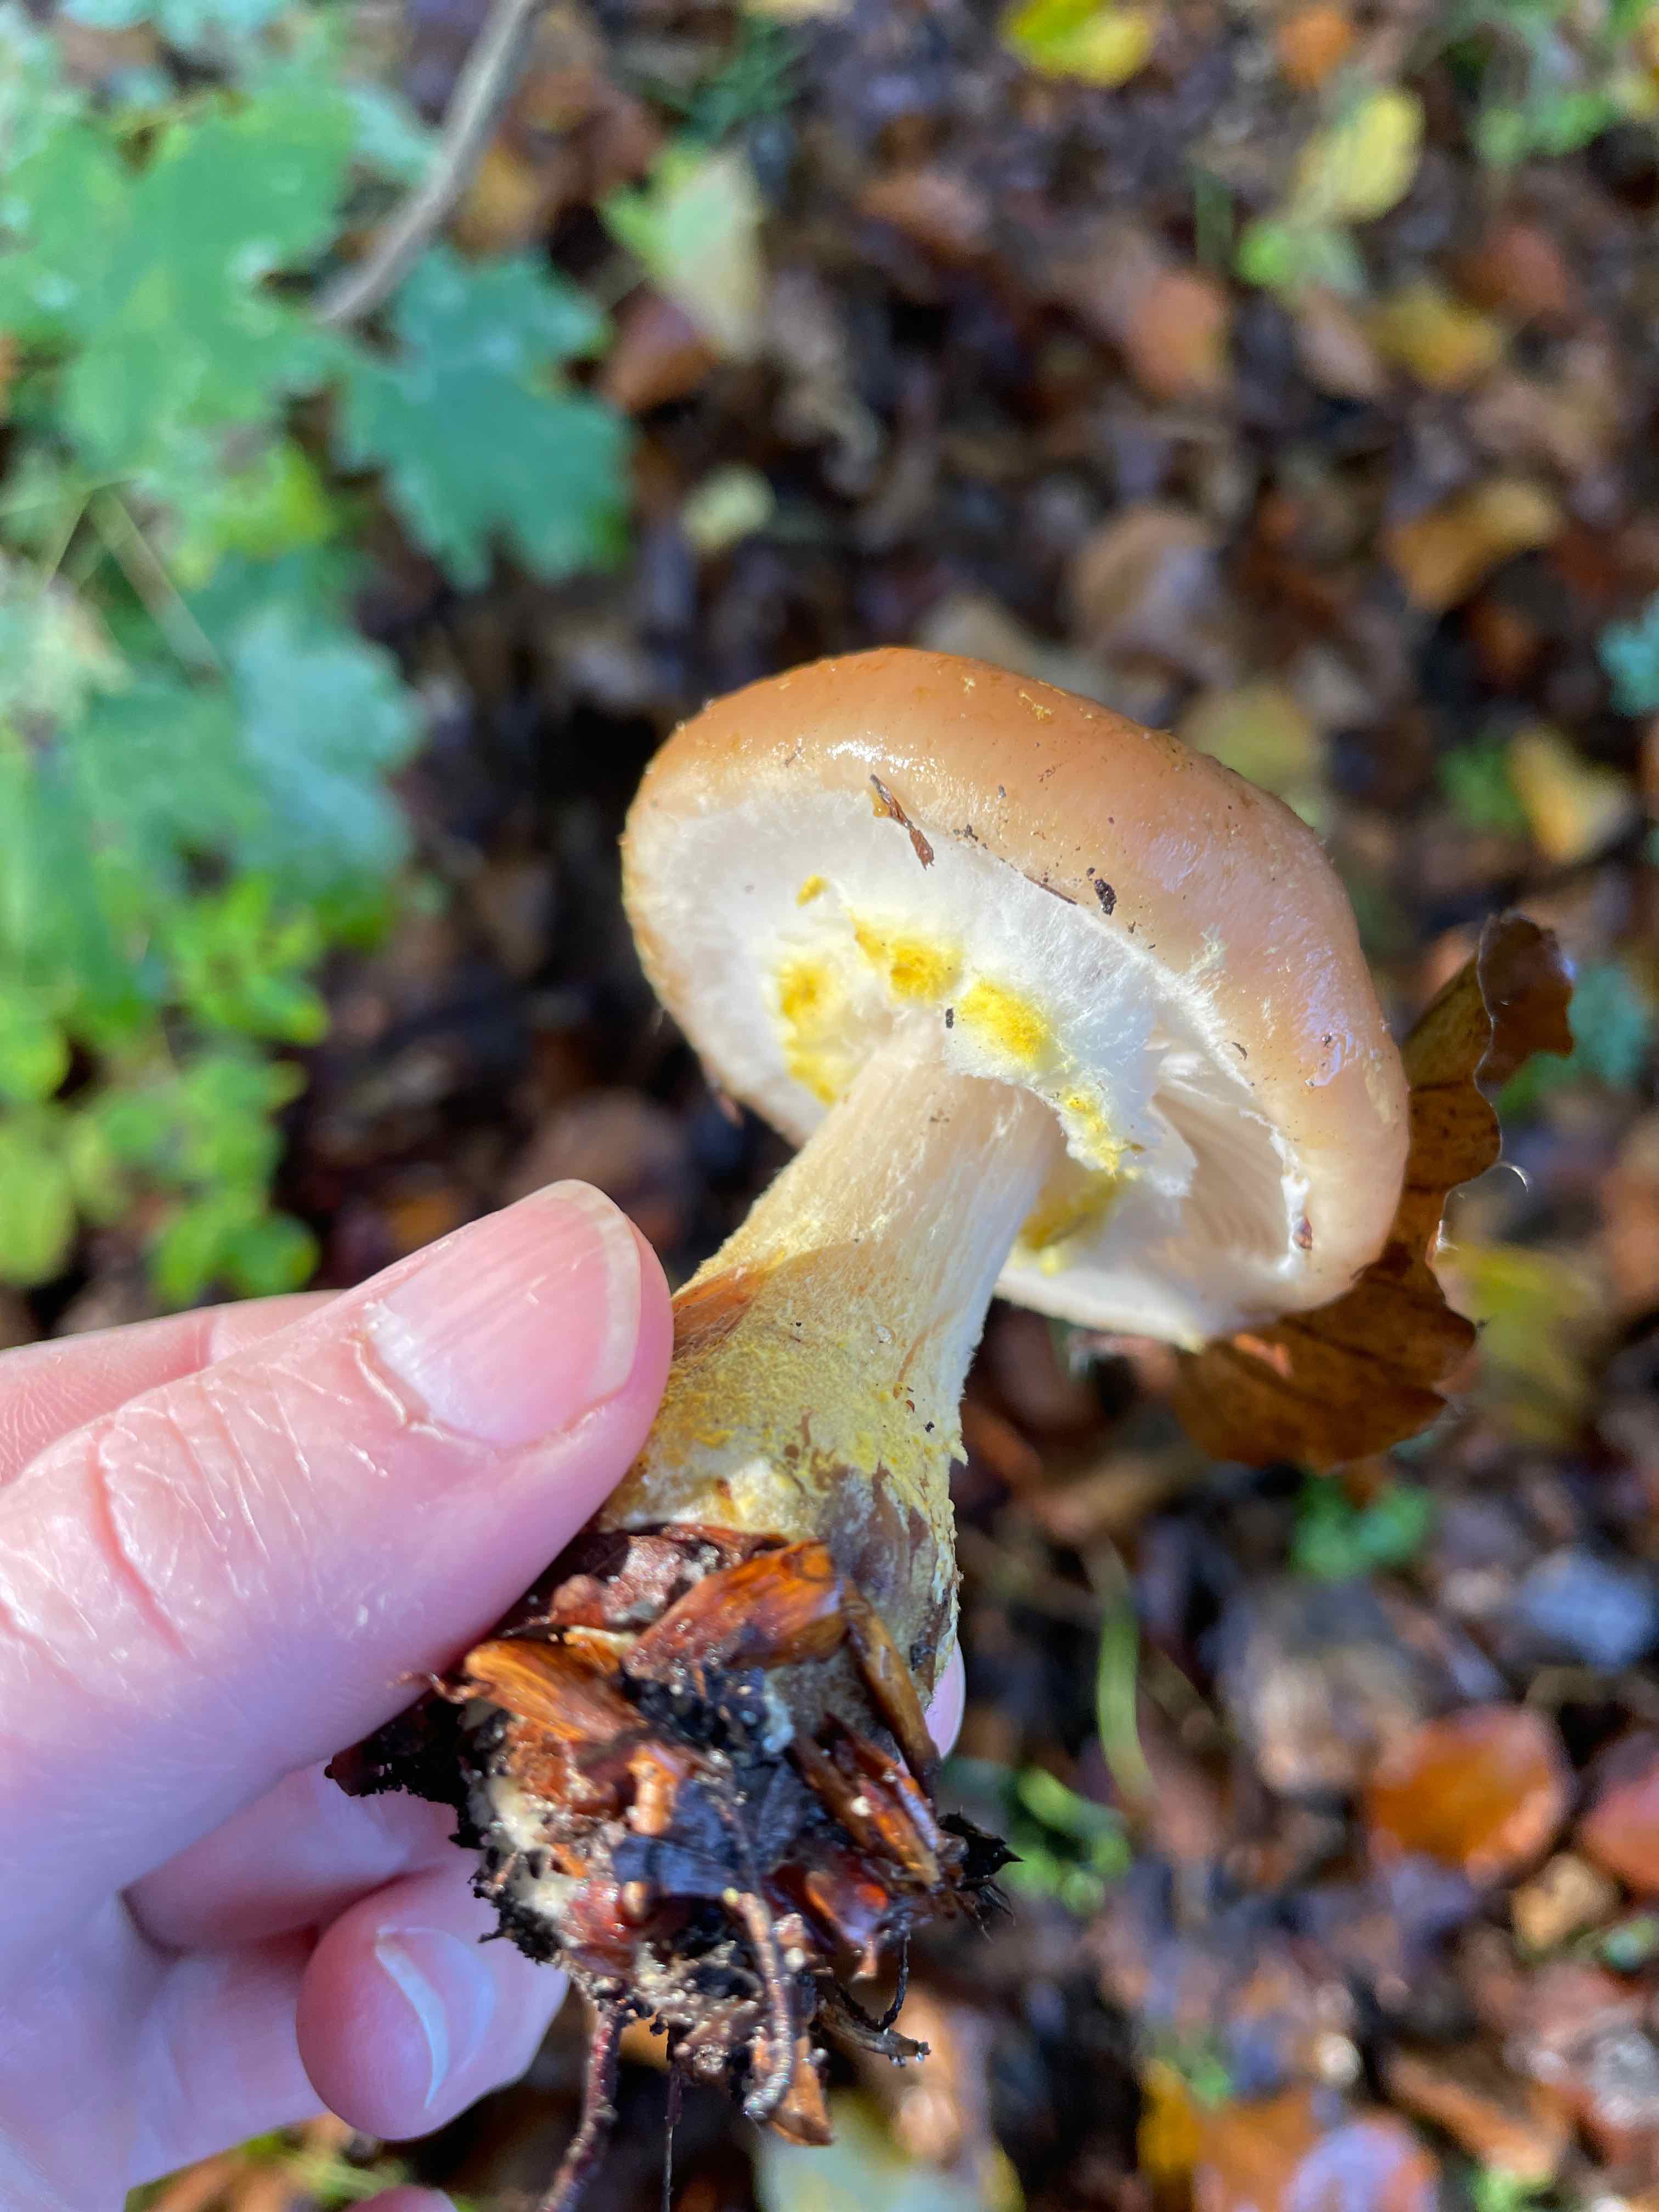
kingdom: Fungi
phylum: Basidiomycota
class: Agaricomycetes
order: Agaricales
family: Physalacriaceae
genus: Armillaria
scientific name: Armillaria lutea
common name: køllestokket honningsvamp
